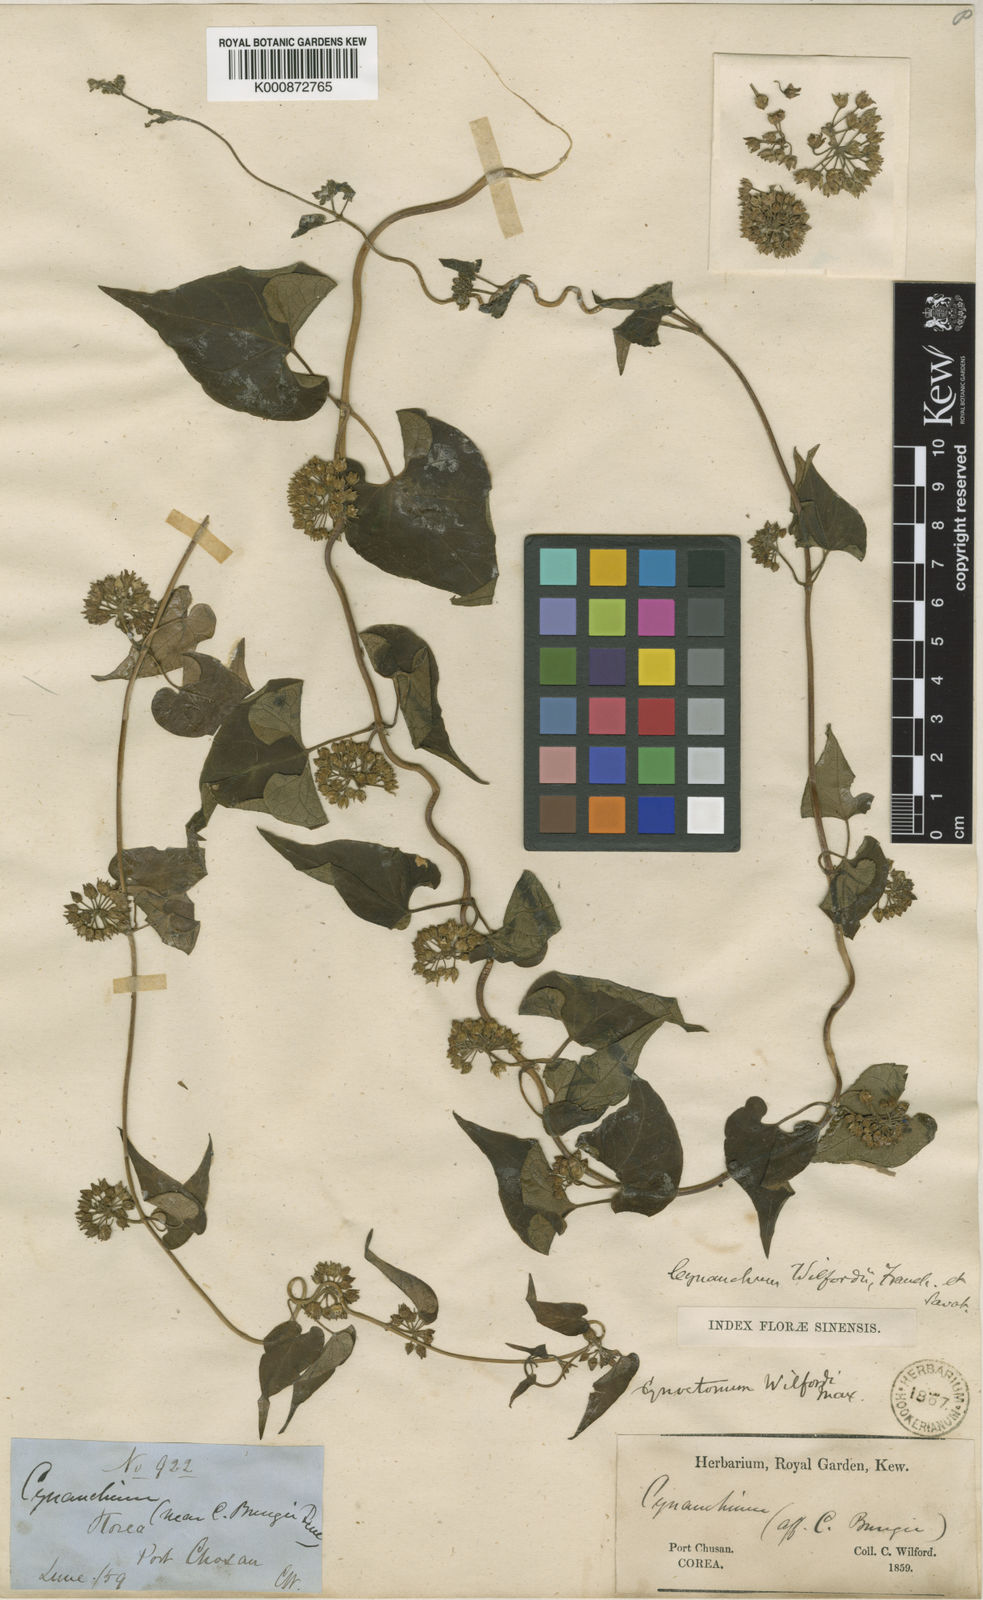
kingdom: Plantae
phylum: Tracheophyta
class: Magnoliopsida
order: Gentianales
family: Apocynaceae
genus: Cynanchum
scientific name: Cynanchum wilfordii
